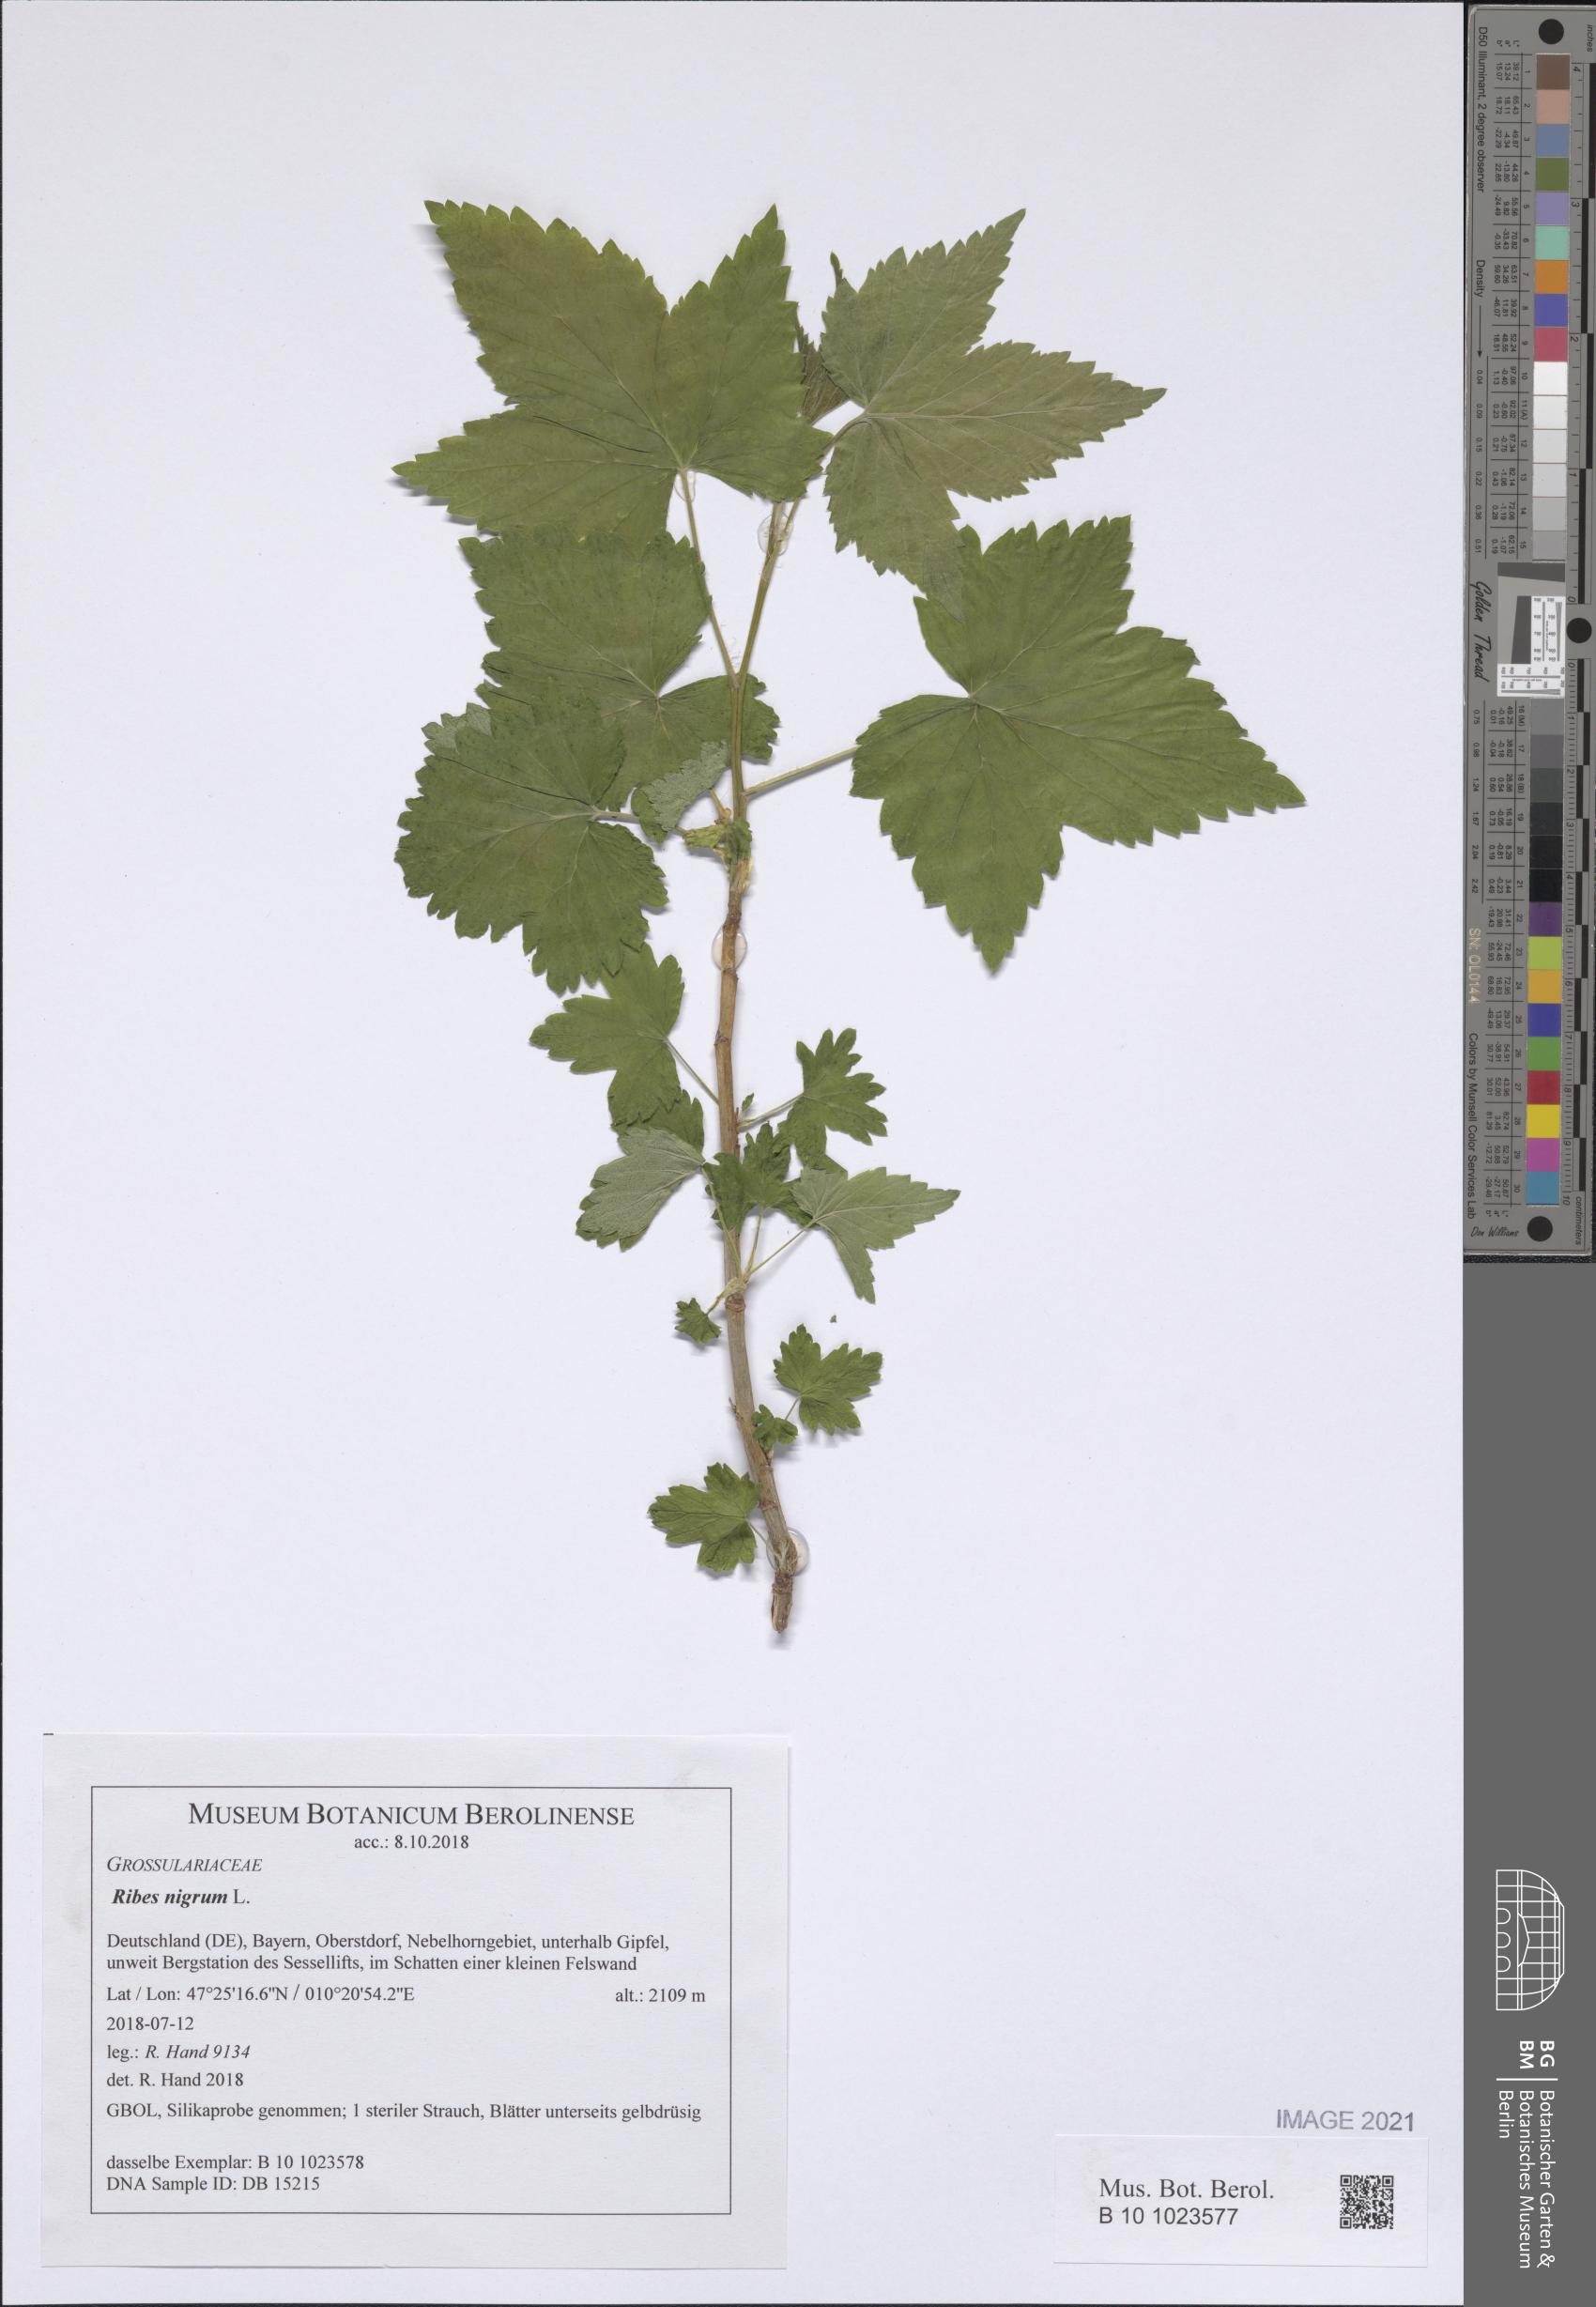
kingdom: Plantae
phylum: Tracheophyta
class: Magnoliopsida
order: Saxifragales
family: Grossulariaceae
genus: Ribes
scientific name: Ribes nigrum
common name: Black currant
